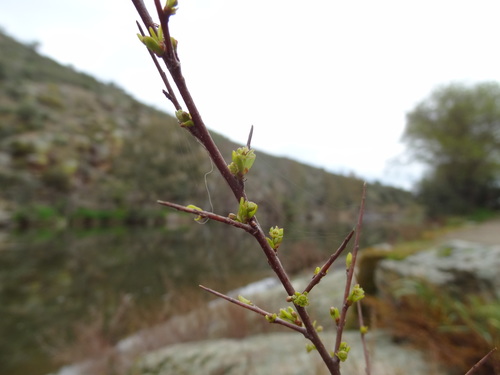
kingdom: Plantae
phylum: Tracheophyta
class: Magnoliopsida
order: Malpighiales
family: Phyllanthaceae
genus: Flueggea
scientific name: Flueggea tinctoria
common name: Tamujo
